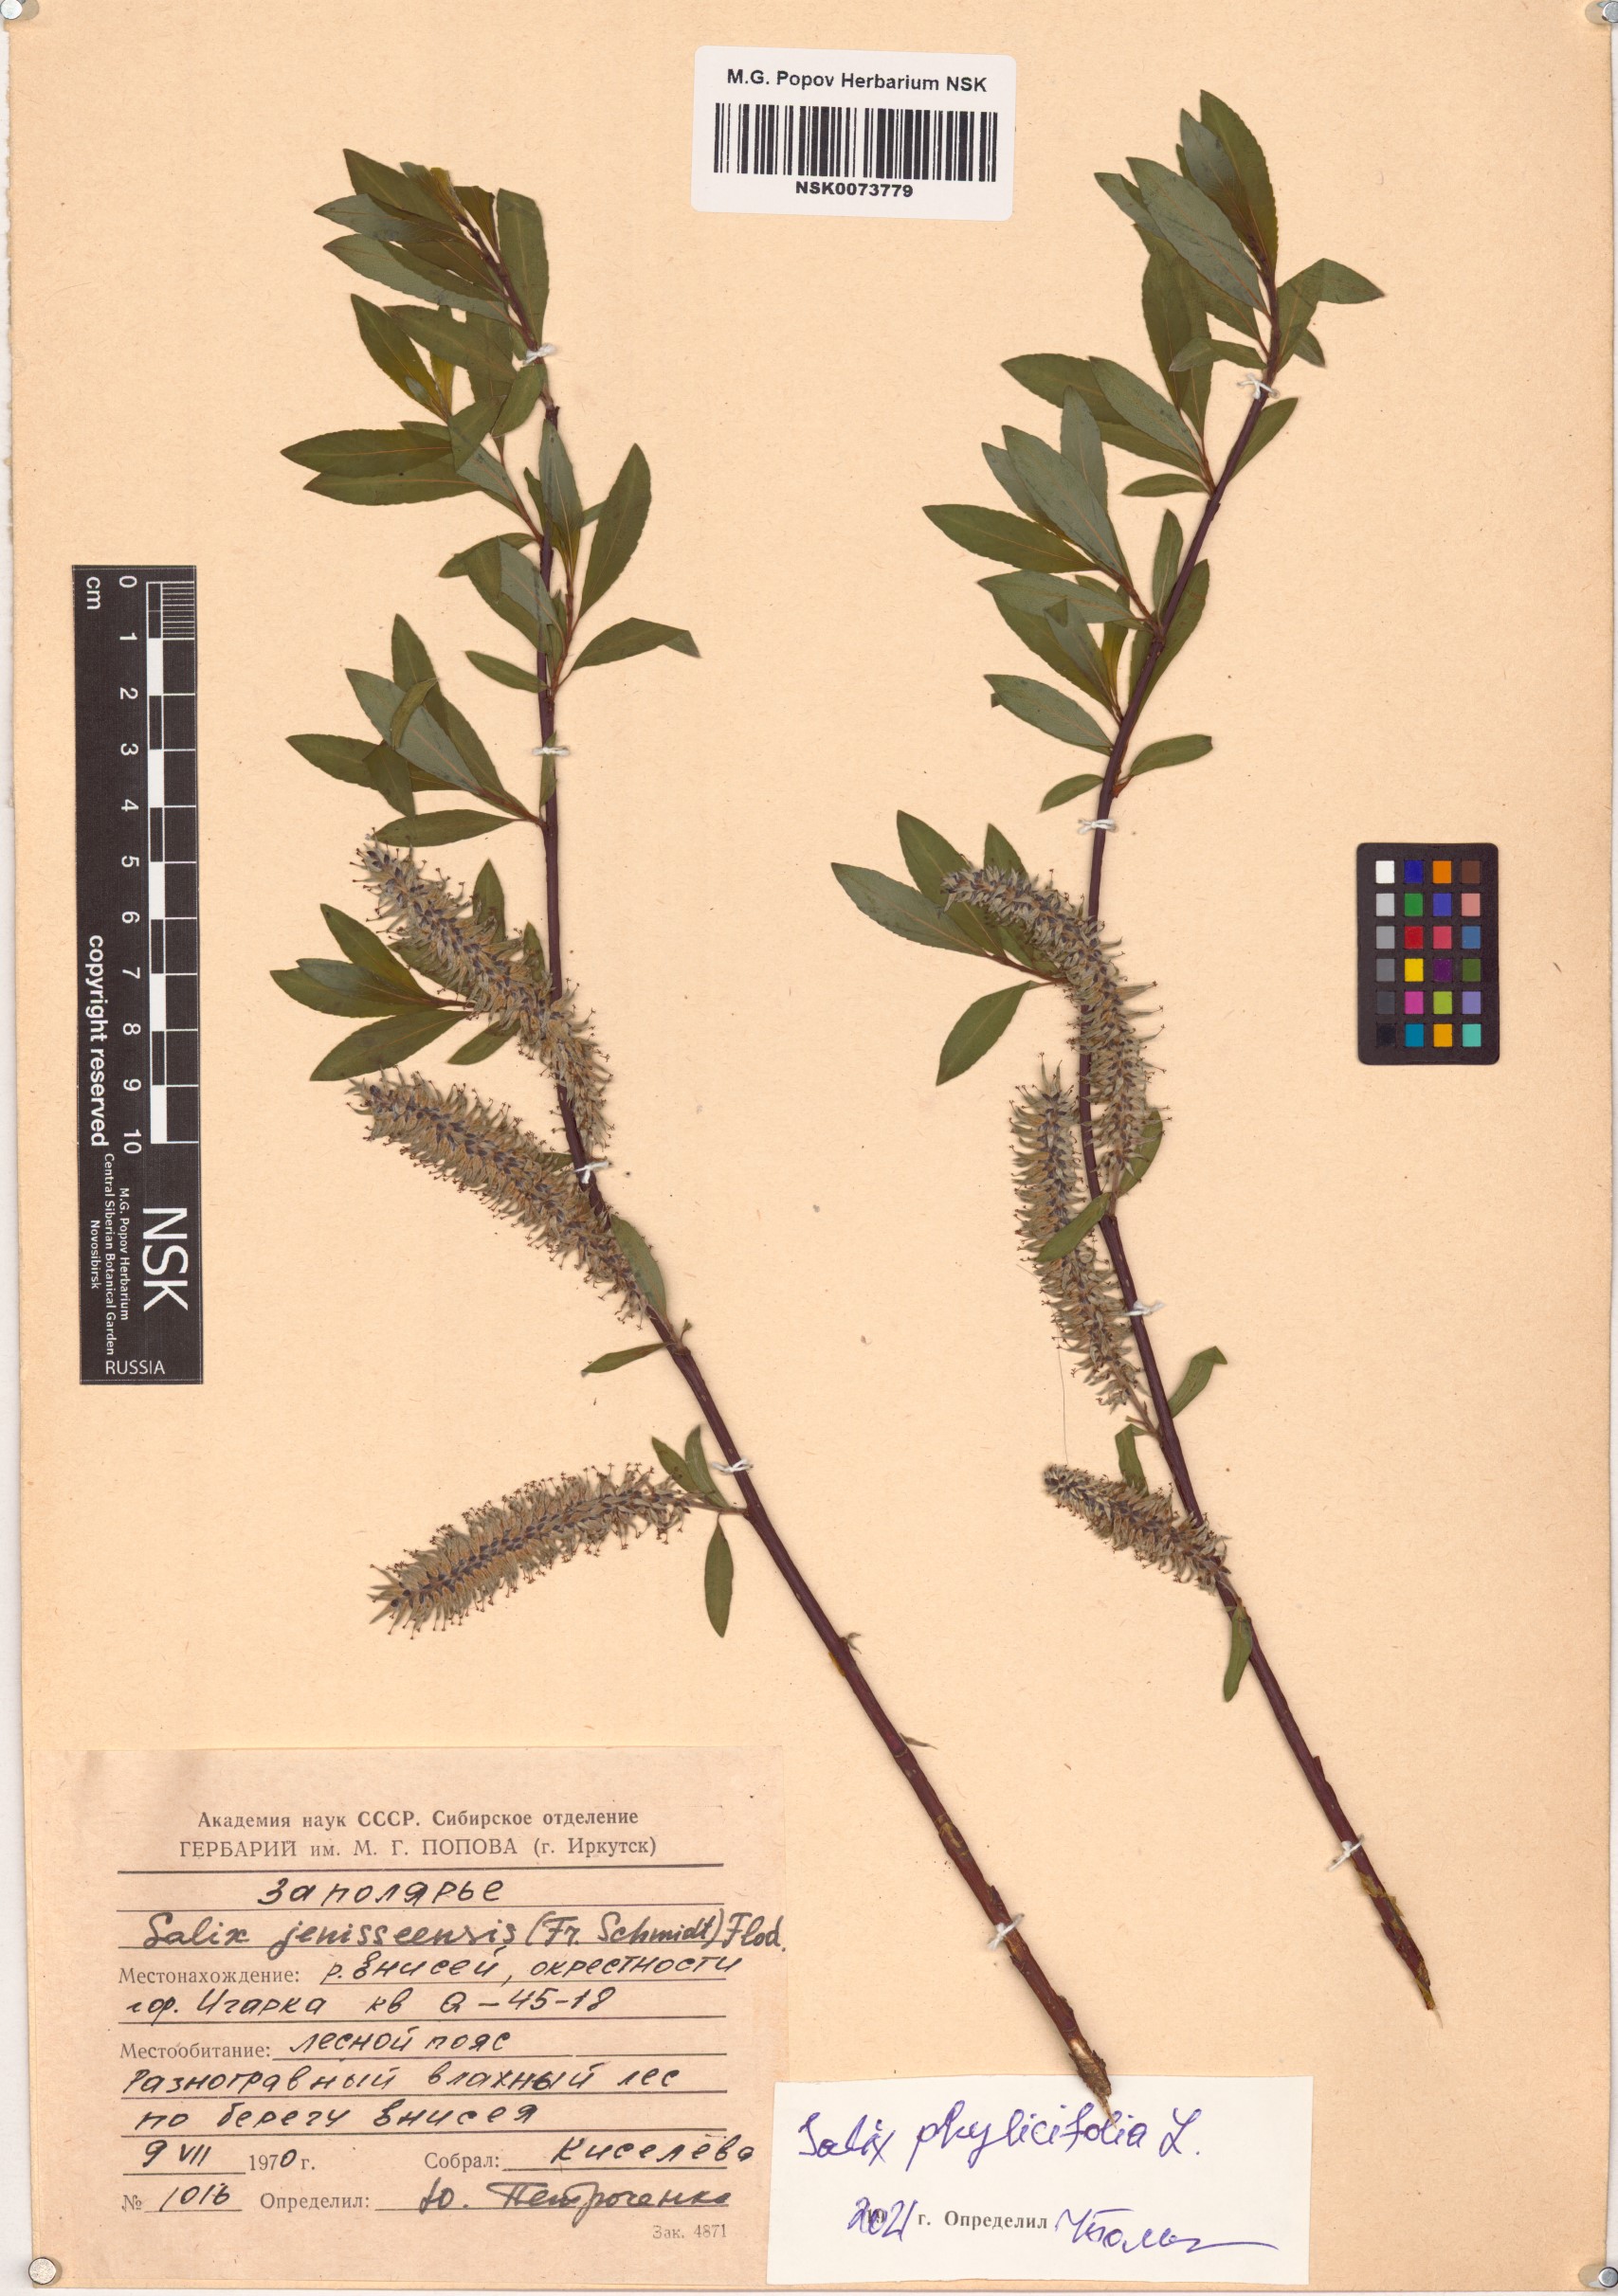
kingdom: Plantae
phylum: Tracheophyta
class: Magnoliopsida
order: Malpighiales
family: Salicaceae
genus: Salix
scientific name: Salix phylicifolia
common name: Tea-leaved willow
